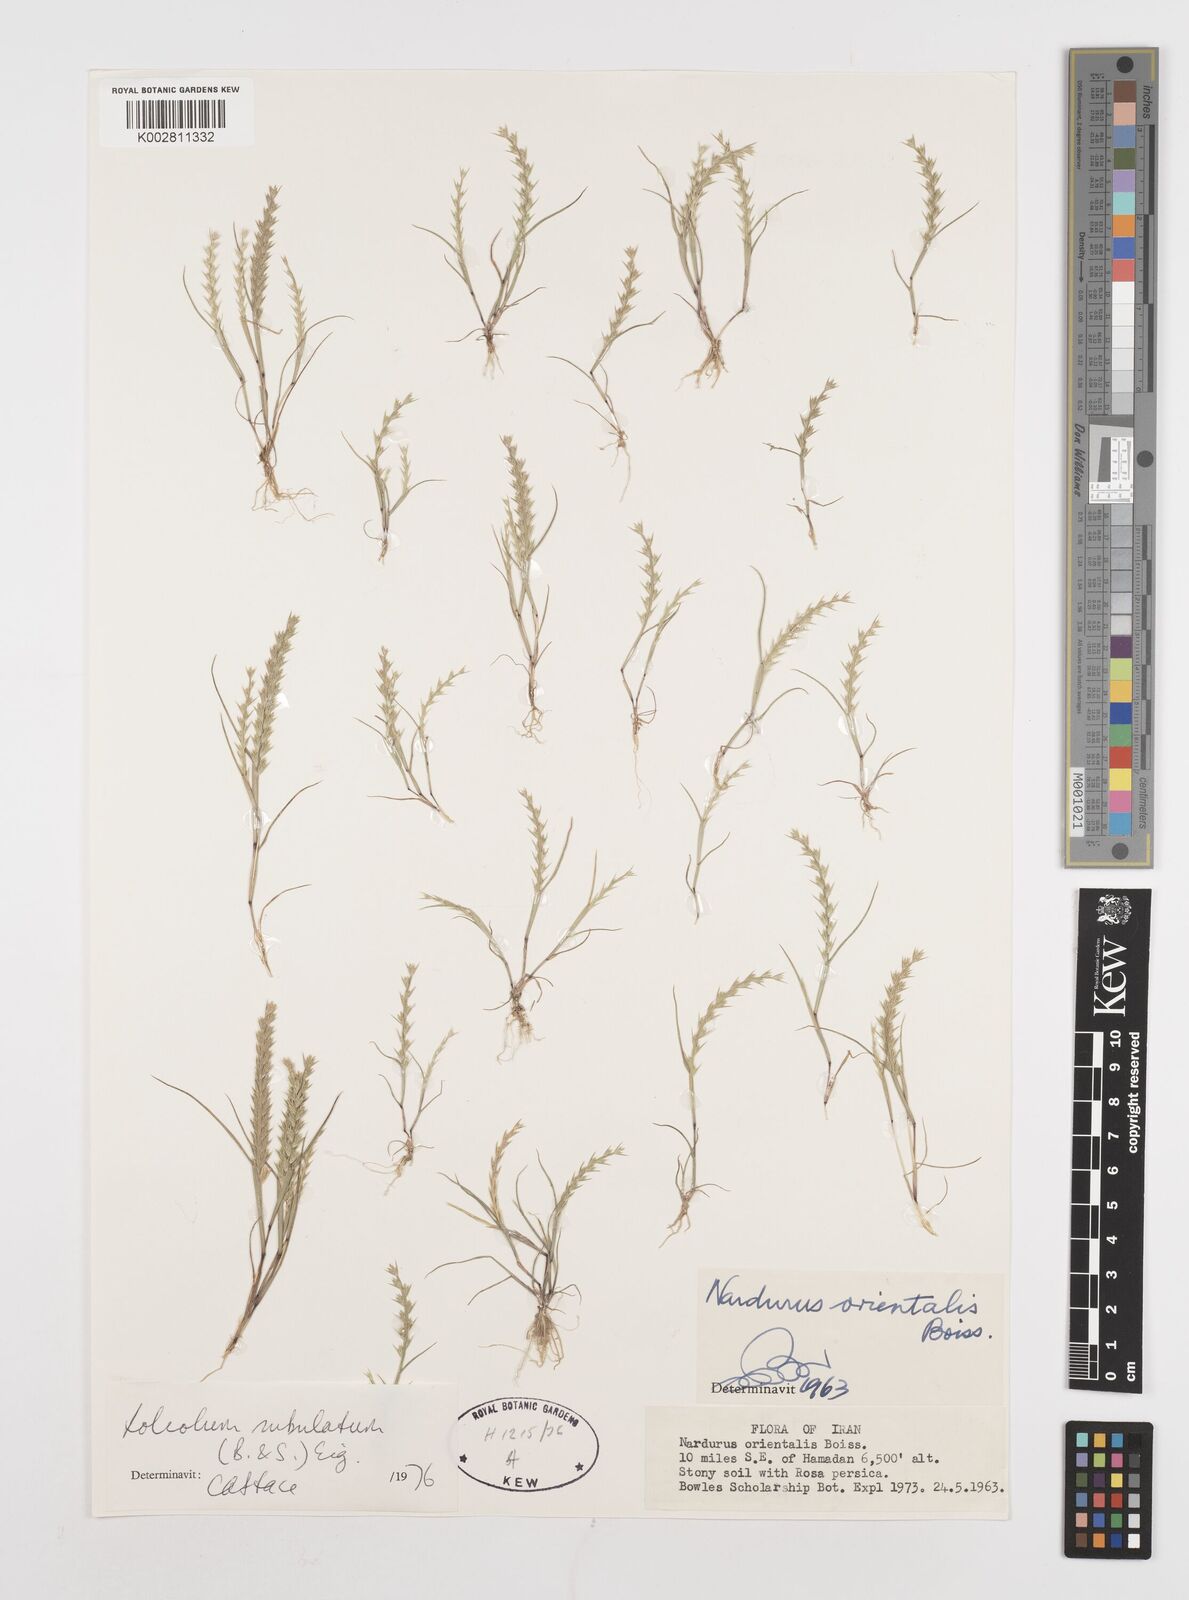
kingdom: Plantae
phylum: Tracheophyta
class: Liliopsida
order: Poales
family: Poaceae
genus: Festuca
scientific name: Festuca orientalis
